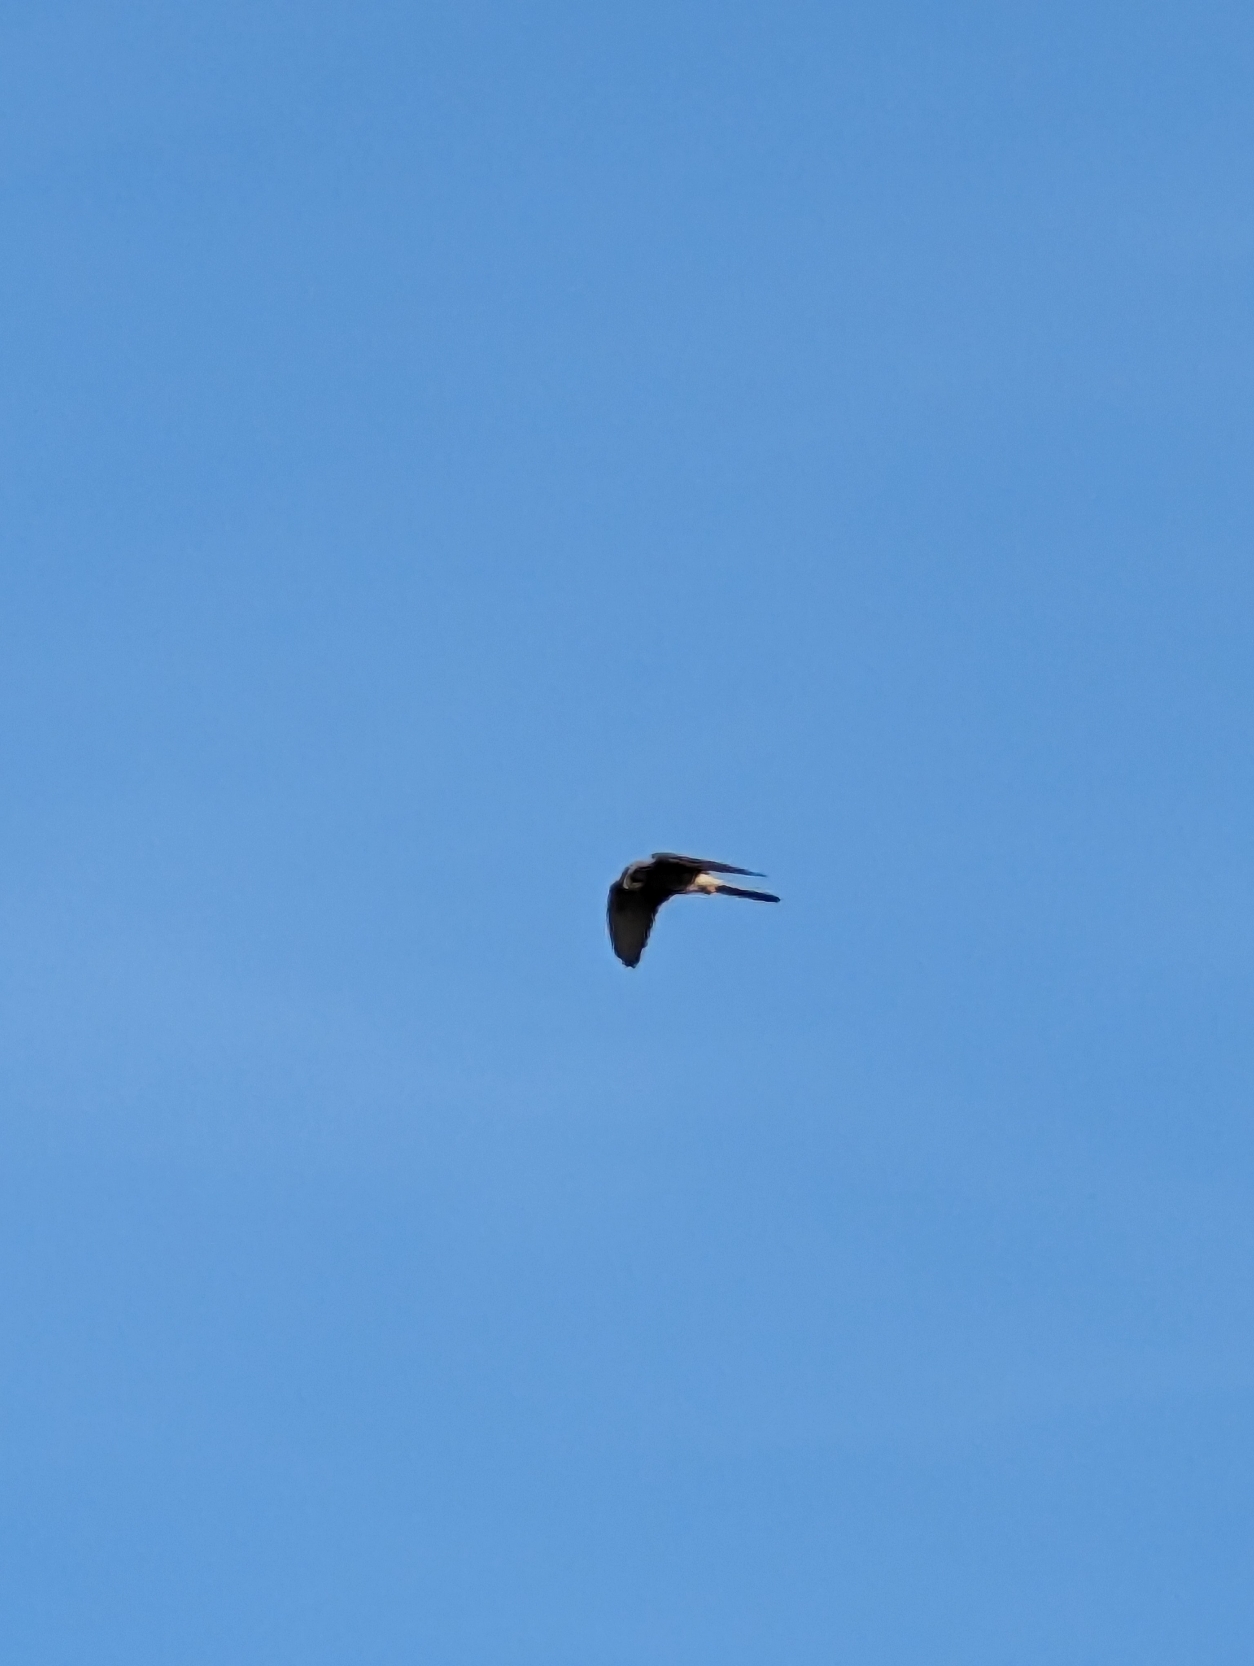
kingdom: Animalia
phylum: Chordata
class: Aves
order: Falconiformes
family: Falconidae
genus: Falco
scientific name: Falco tinnunculus
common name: Tårnfalk
